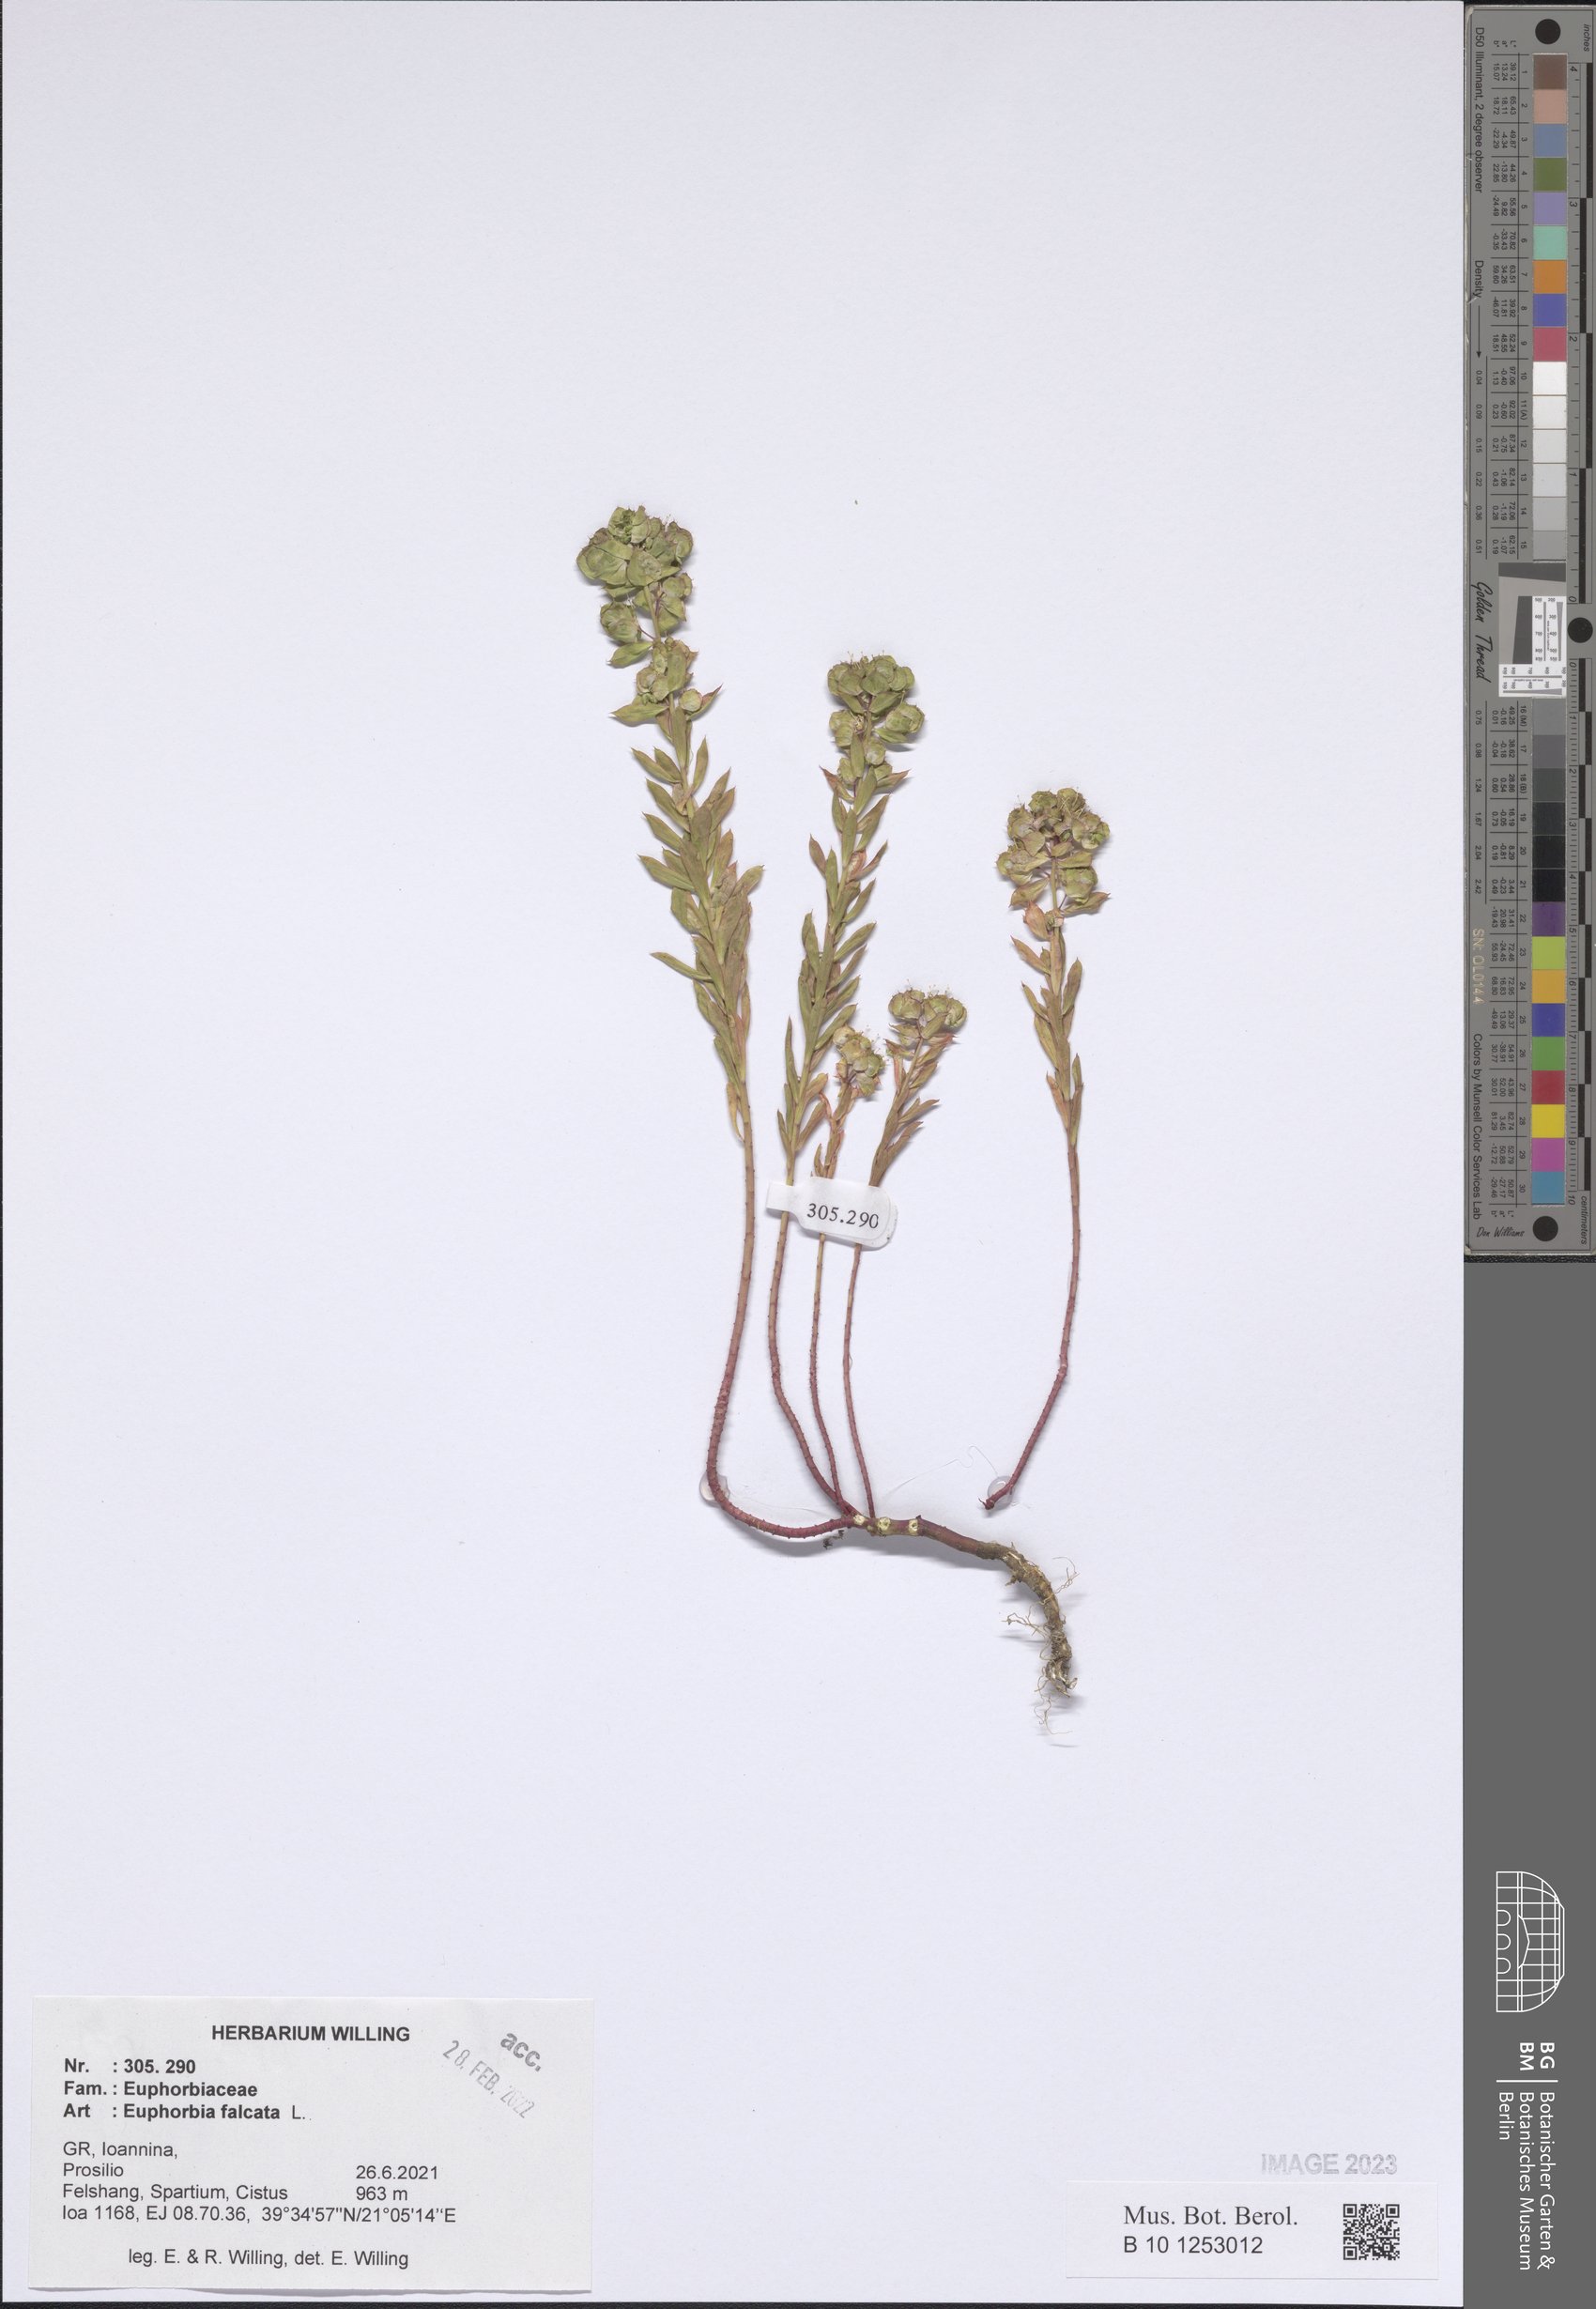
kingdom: Plantae
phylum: Tracheophyta
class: Magnoliopsida
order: Malpighiales
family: Euphorbiaceae
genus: Euphorbia
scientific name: Euphorbia falcata
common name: Sickle spurge
